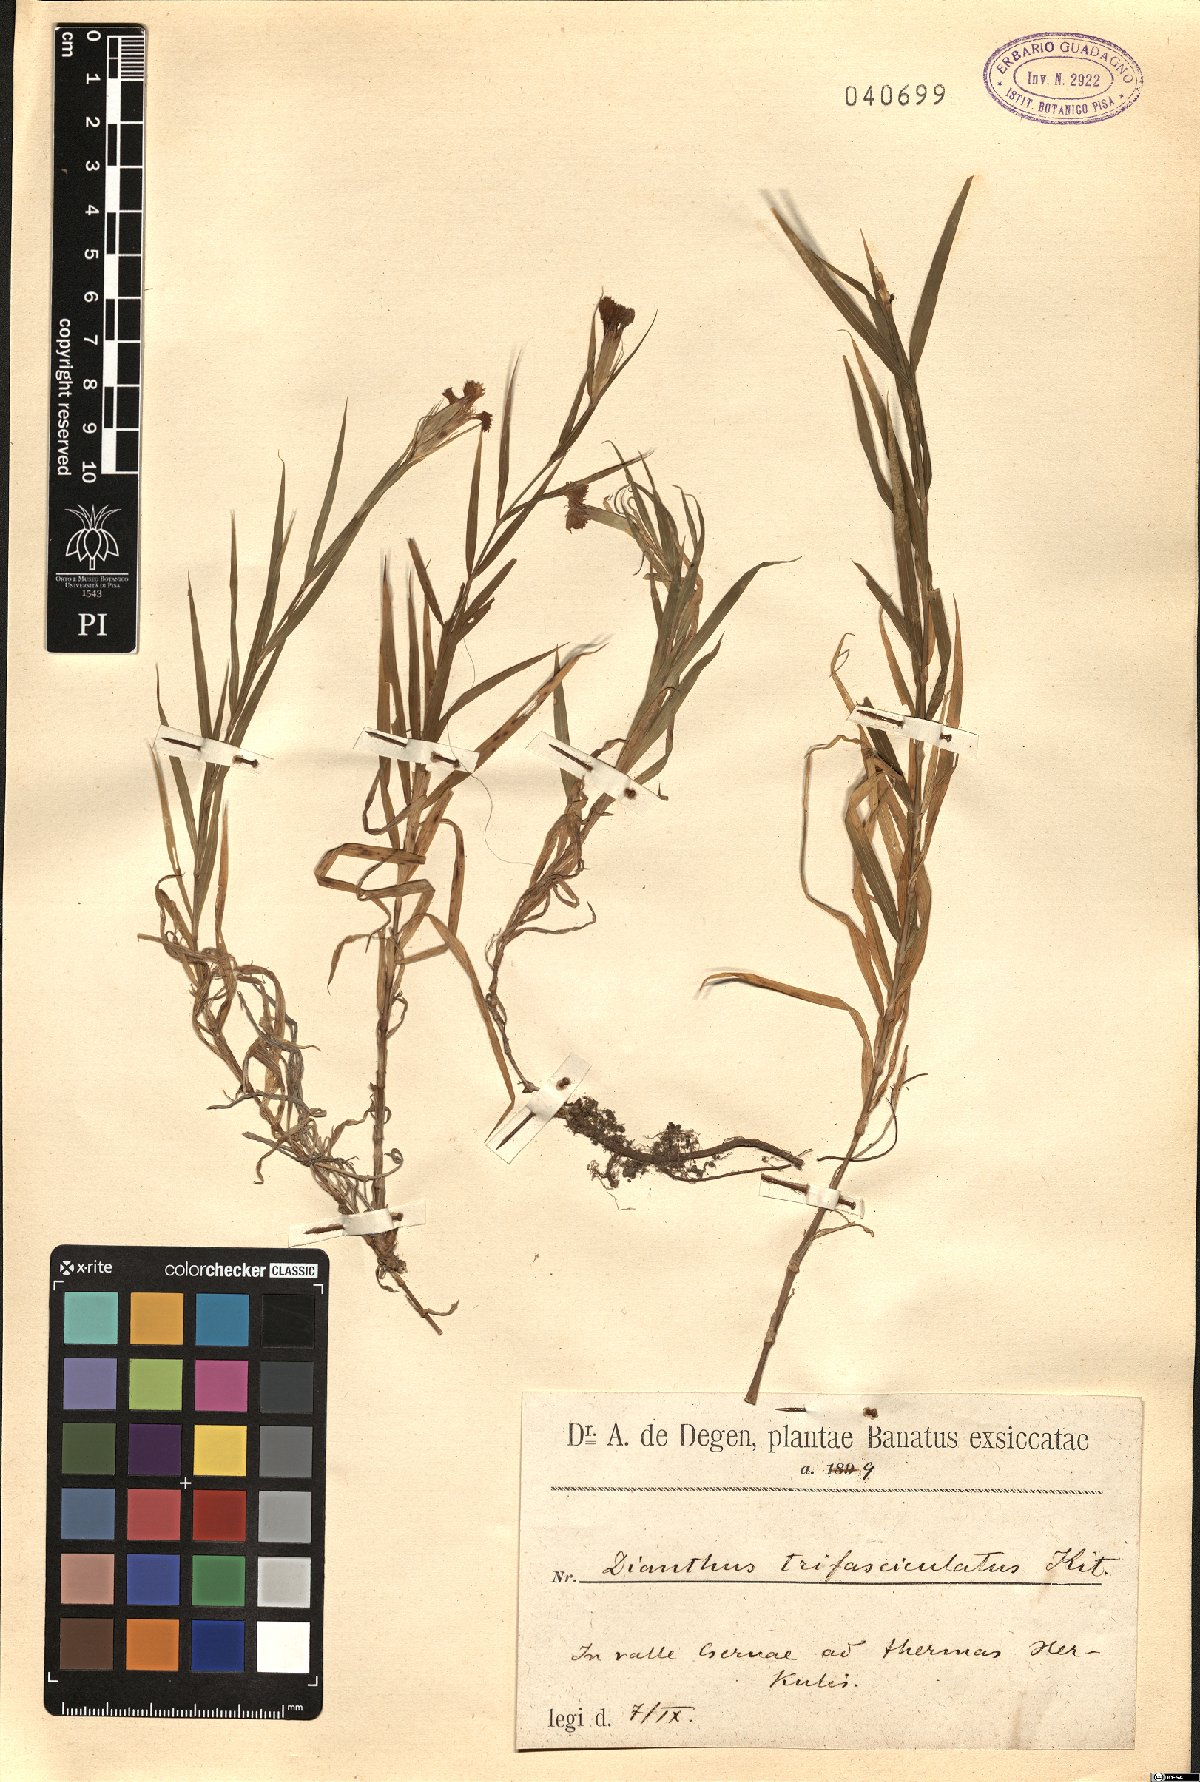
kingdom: Plantae
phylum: Tracheophyta
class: Magnoliopsida
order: Caryophyllales
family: Caryophyllaceae
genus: Dianthus
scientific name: Dianthus trifasciculatus
